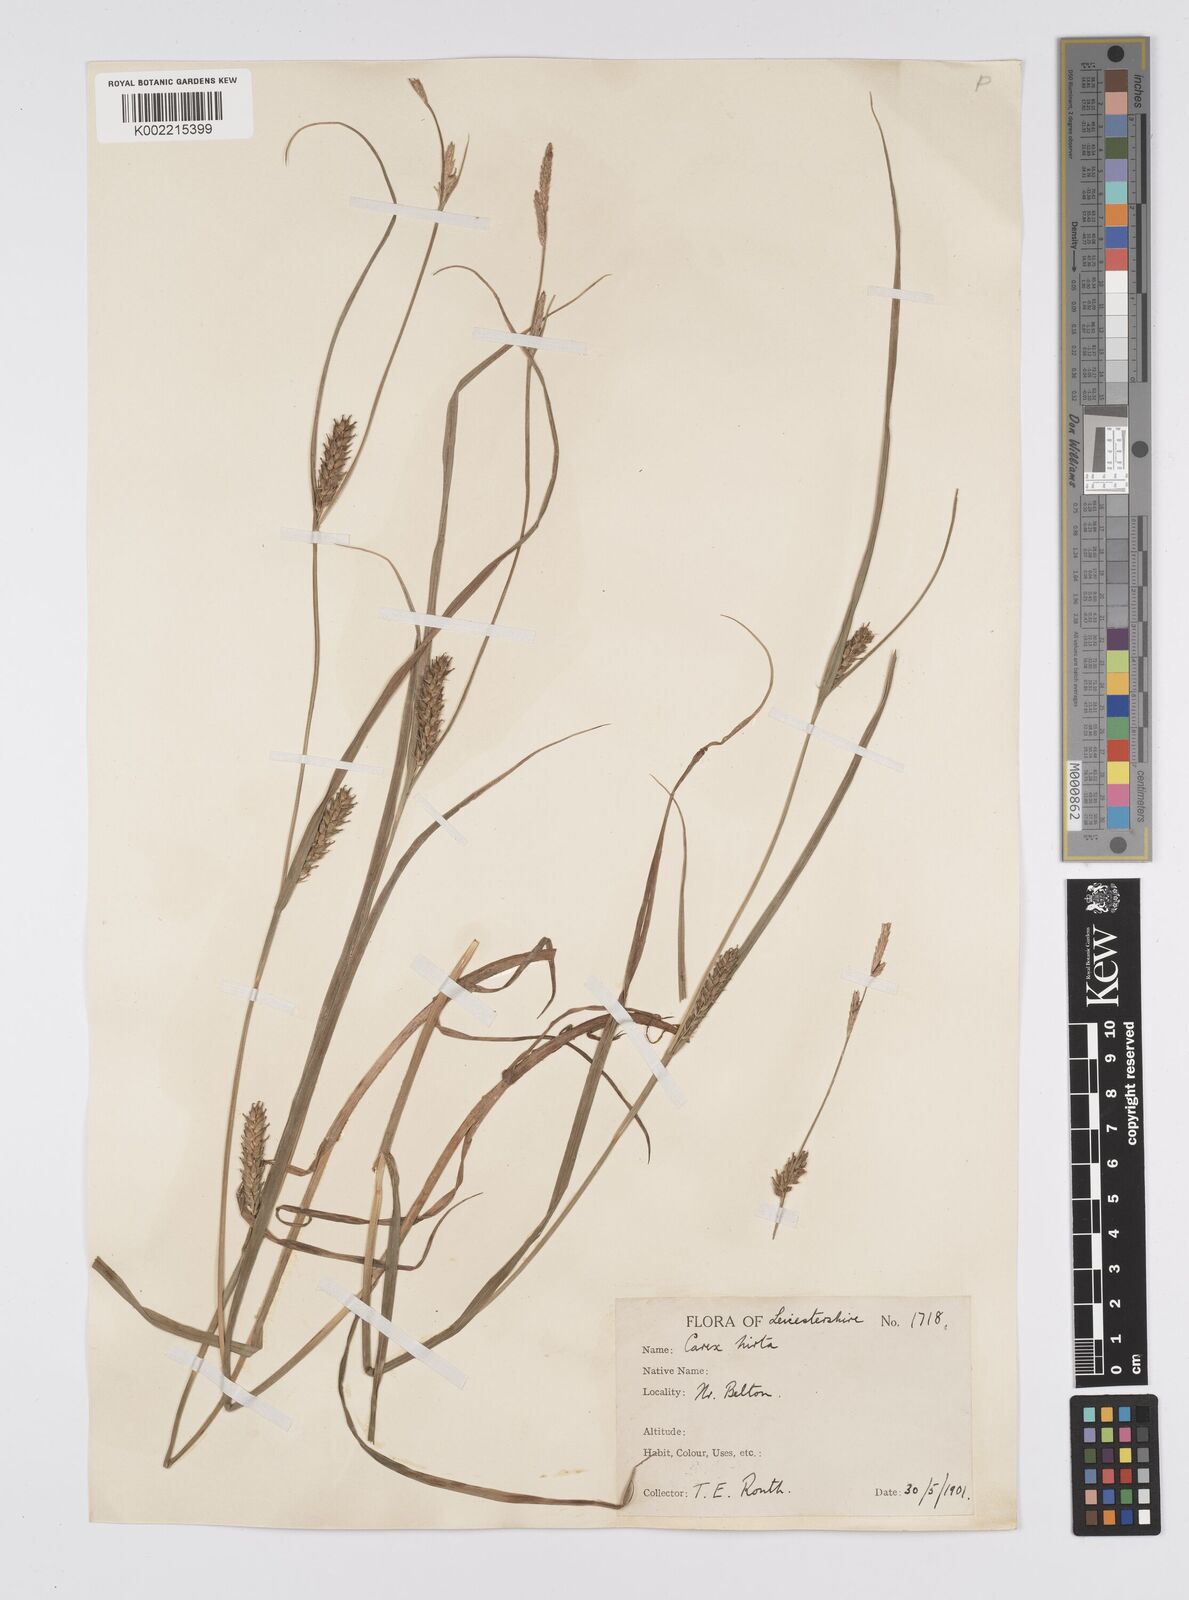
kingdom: Plantae
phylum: Tracheophyta
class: Liliopsida
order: Poales
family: Cyperaceae
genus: Carex
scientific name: Carex hirta
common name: Hairy sedge
